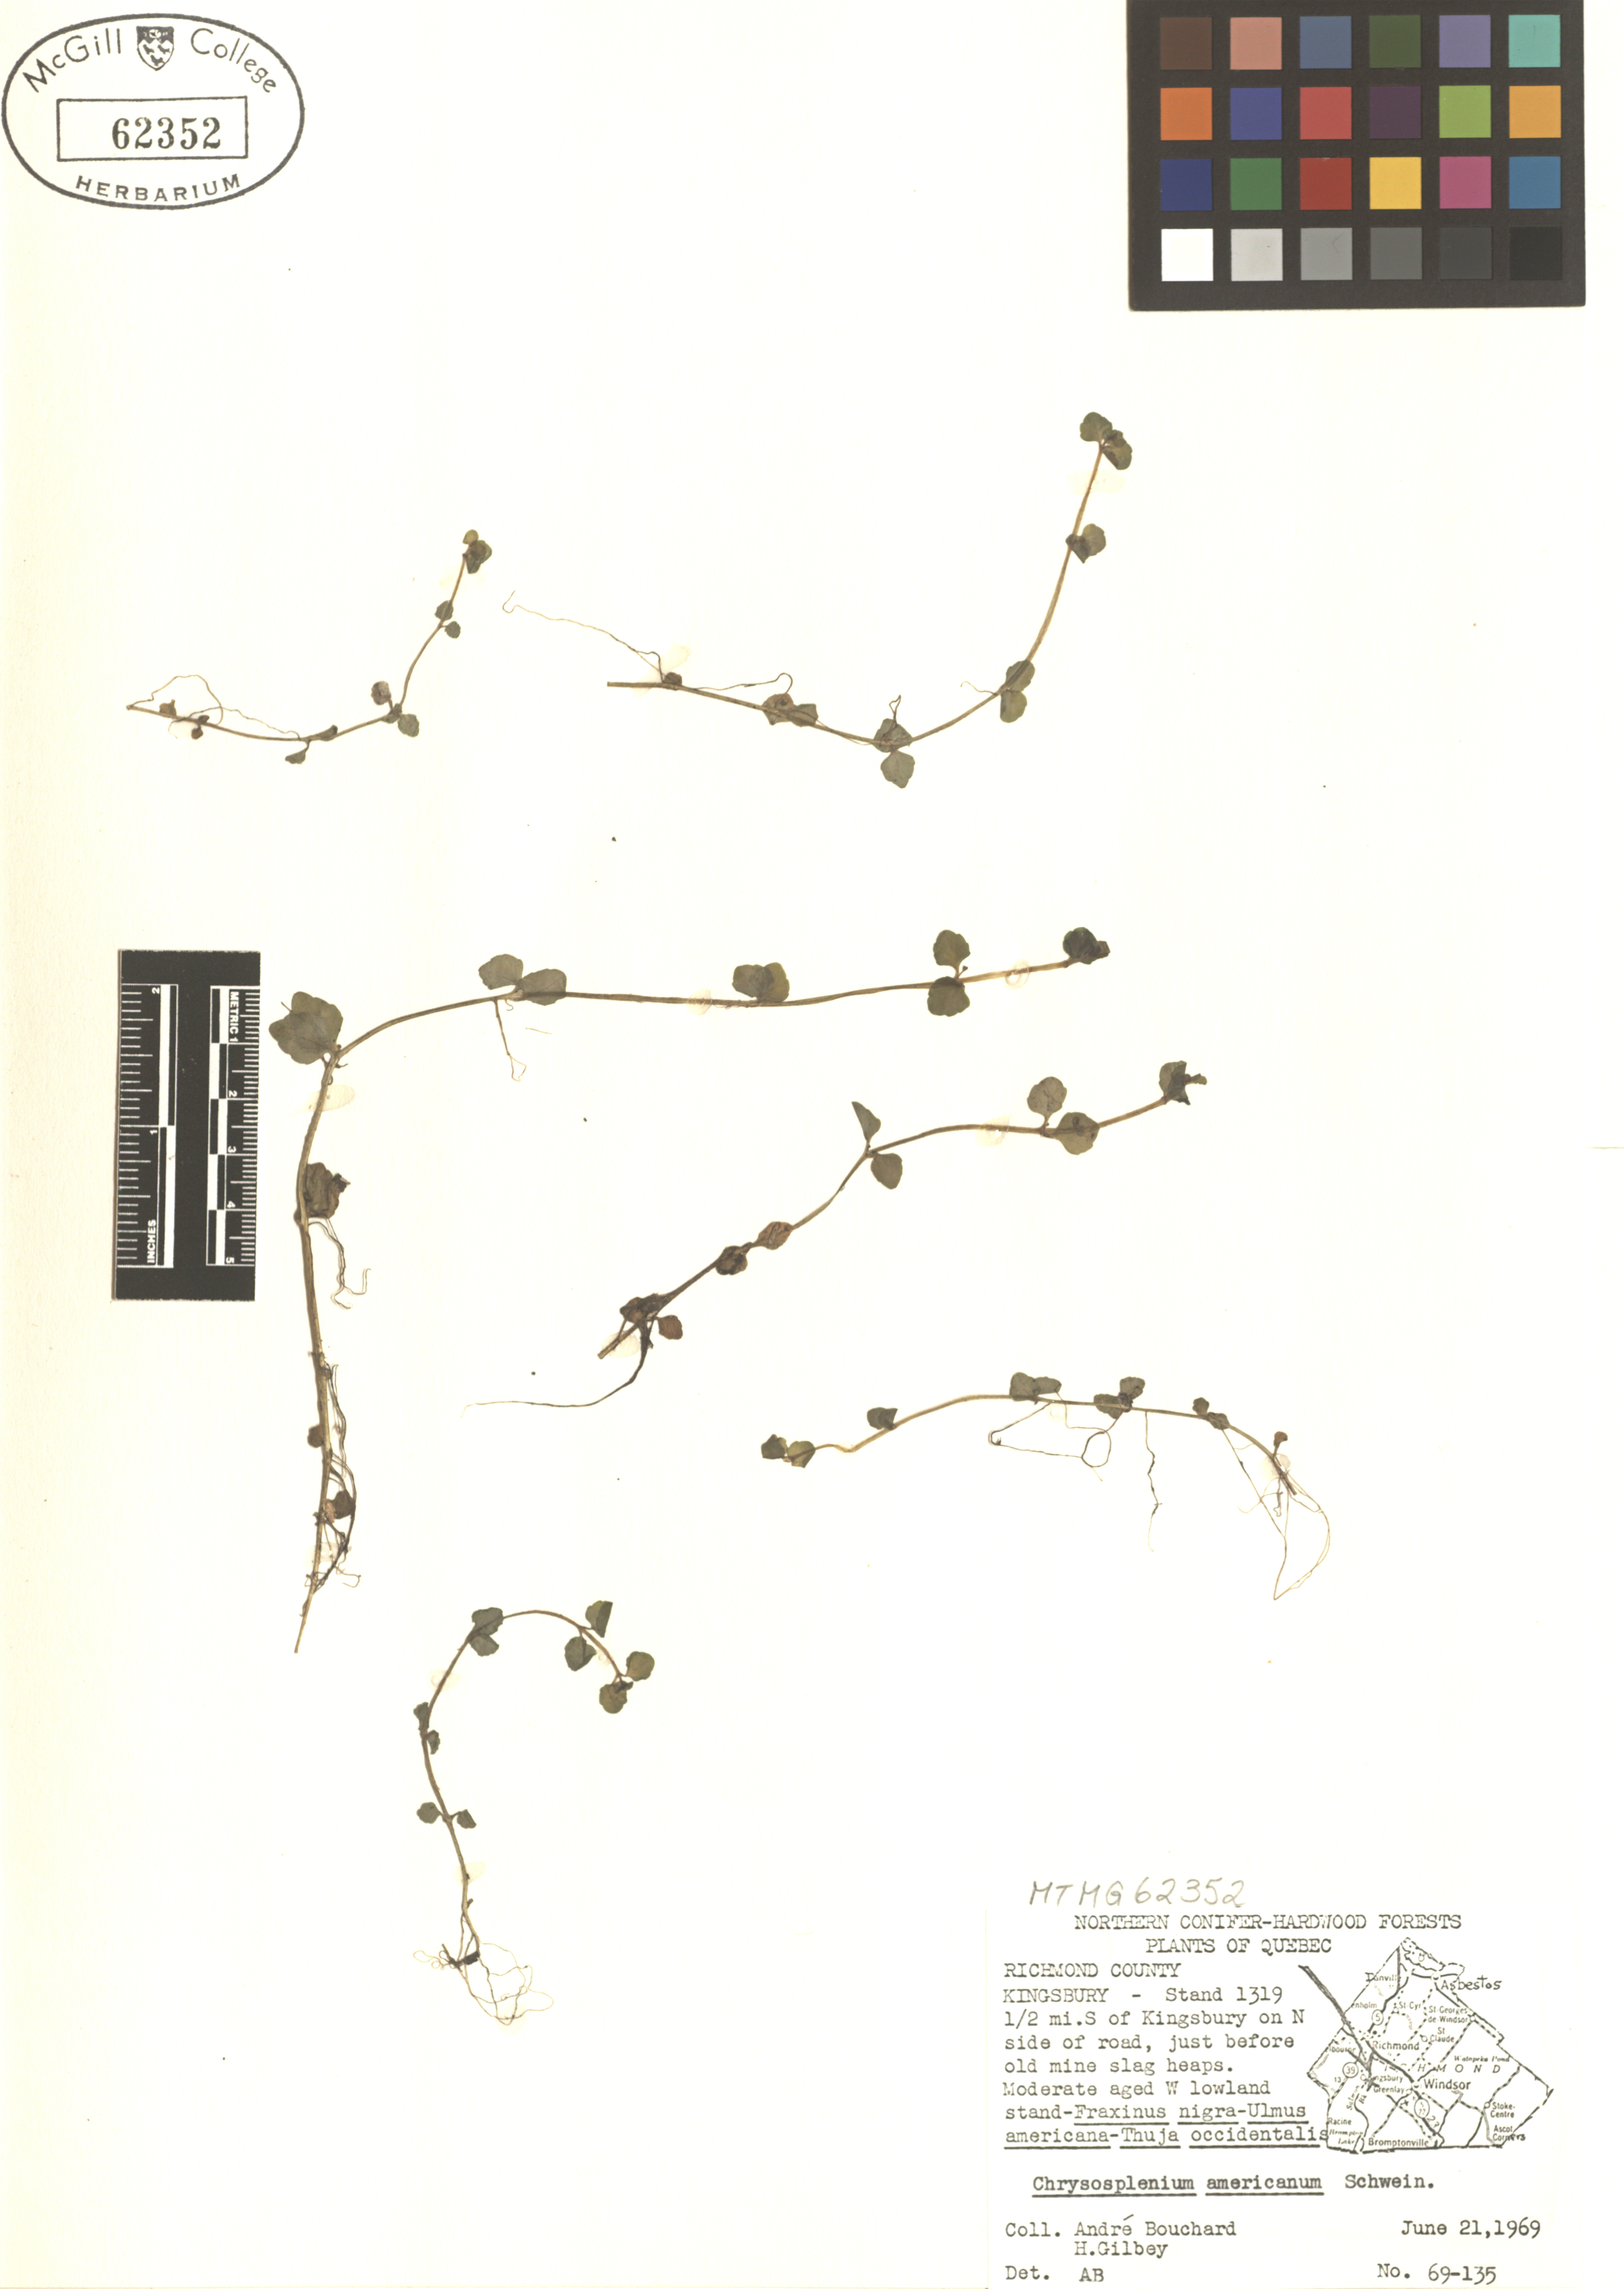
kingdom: Plantae
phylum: Tracheophyta
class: Magnoliopsida
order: Saxifragales
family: Saxifragaceae
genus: Chrysosplenium
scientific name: Chrysosplenium americanum
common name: American golden-saxifrage
